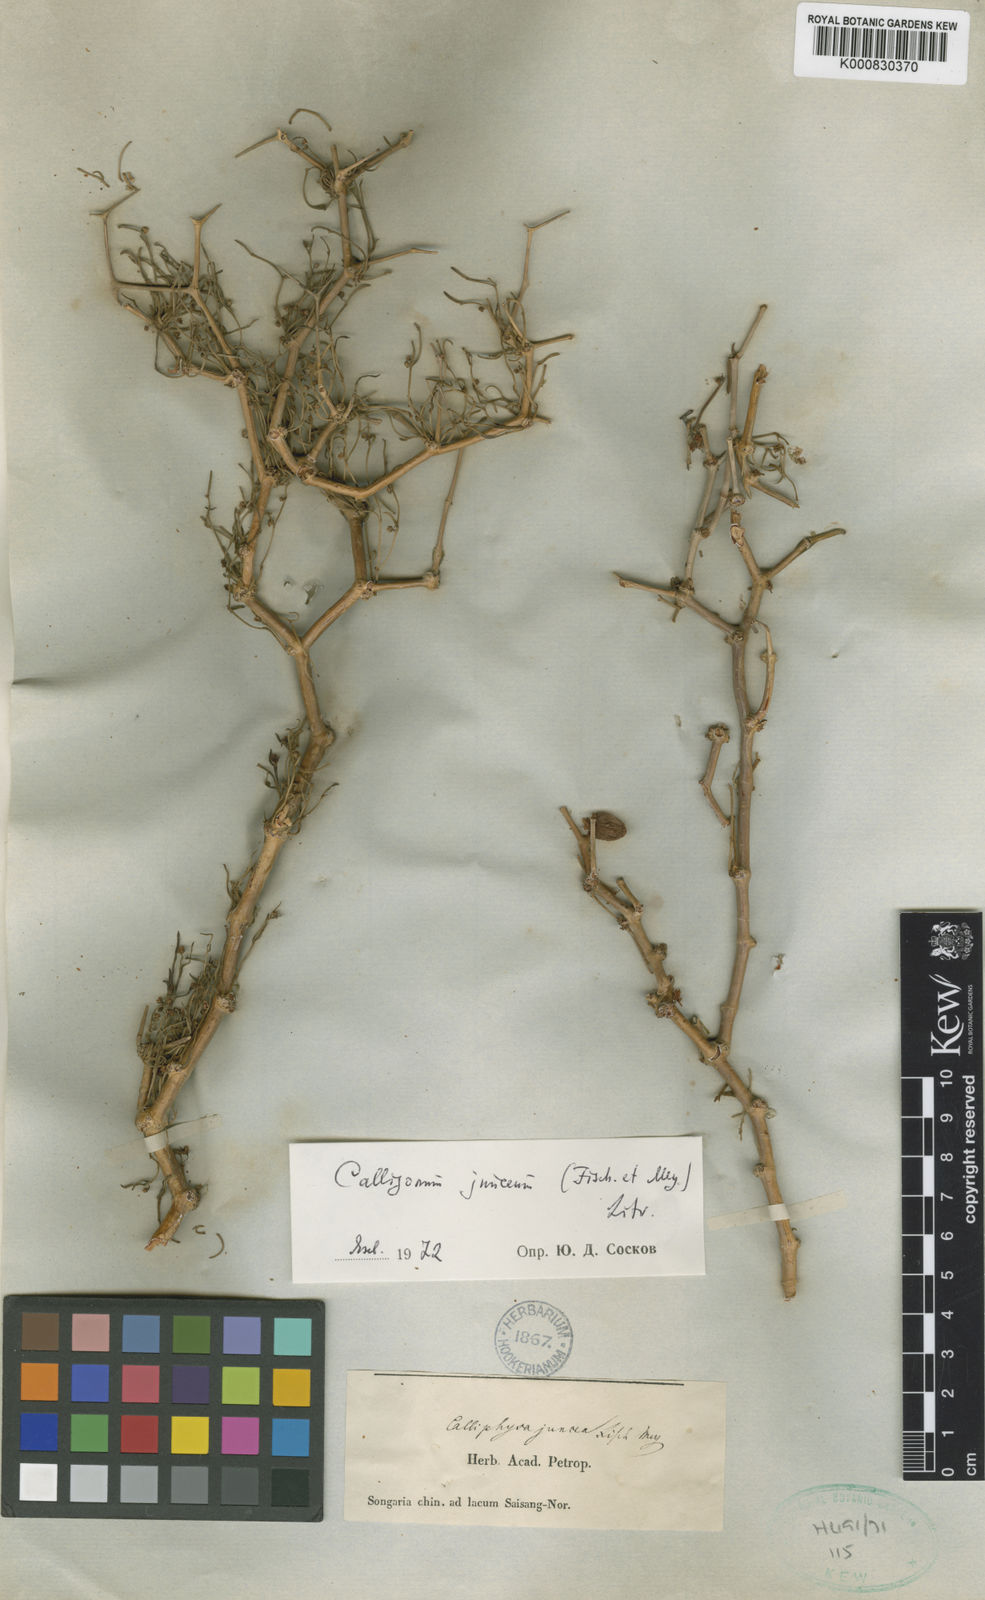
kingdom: Plantae
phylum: Tracheophyta
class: Magnoliopsida
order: Caryophyllales
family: Polygonaceae
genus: Calligonum
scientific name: Calligonum junceum
